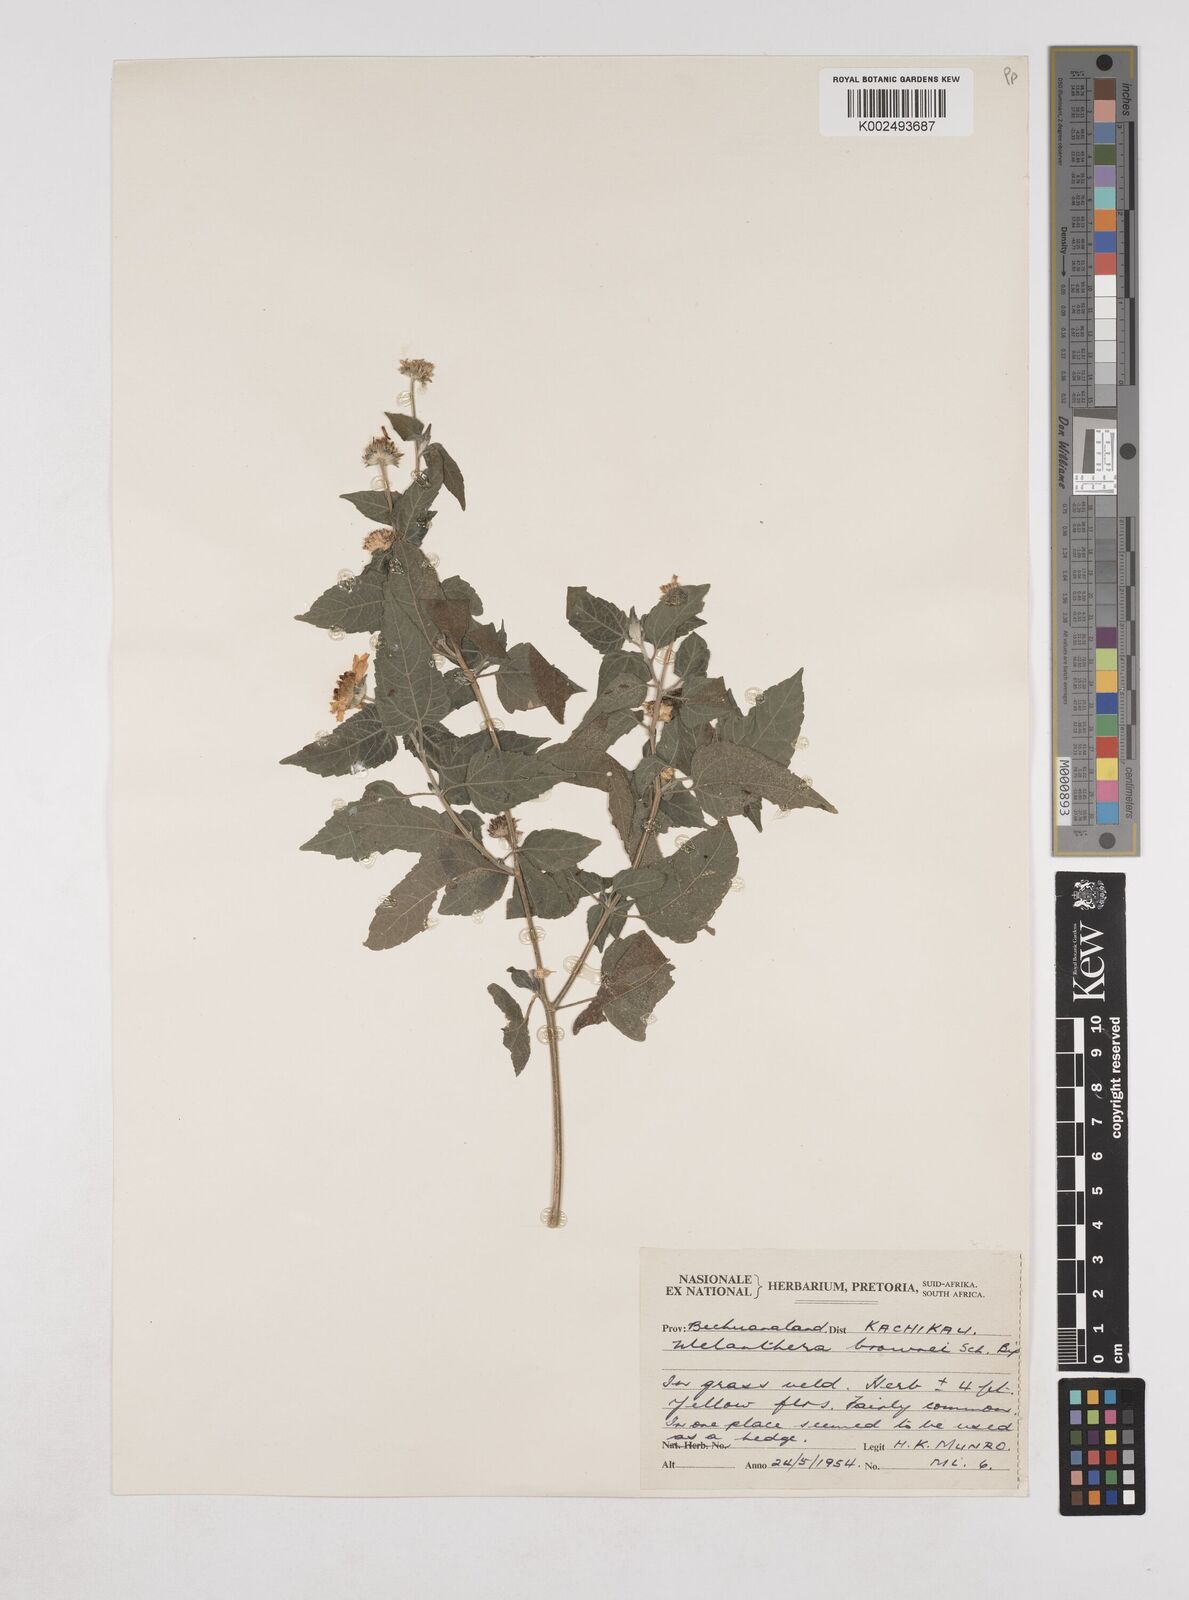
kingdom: Plantae
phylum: Tracheophyta
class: Magnoliopsida
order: Asterales
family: Asteraceae
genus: Lipotriche
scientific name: Lipotriche marlothiana
